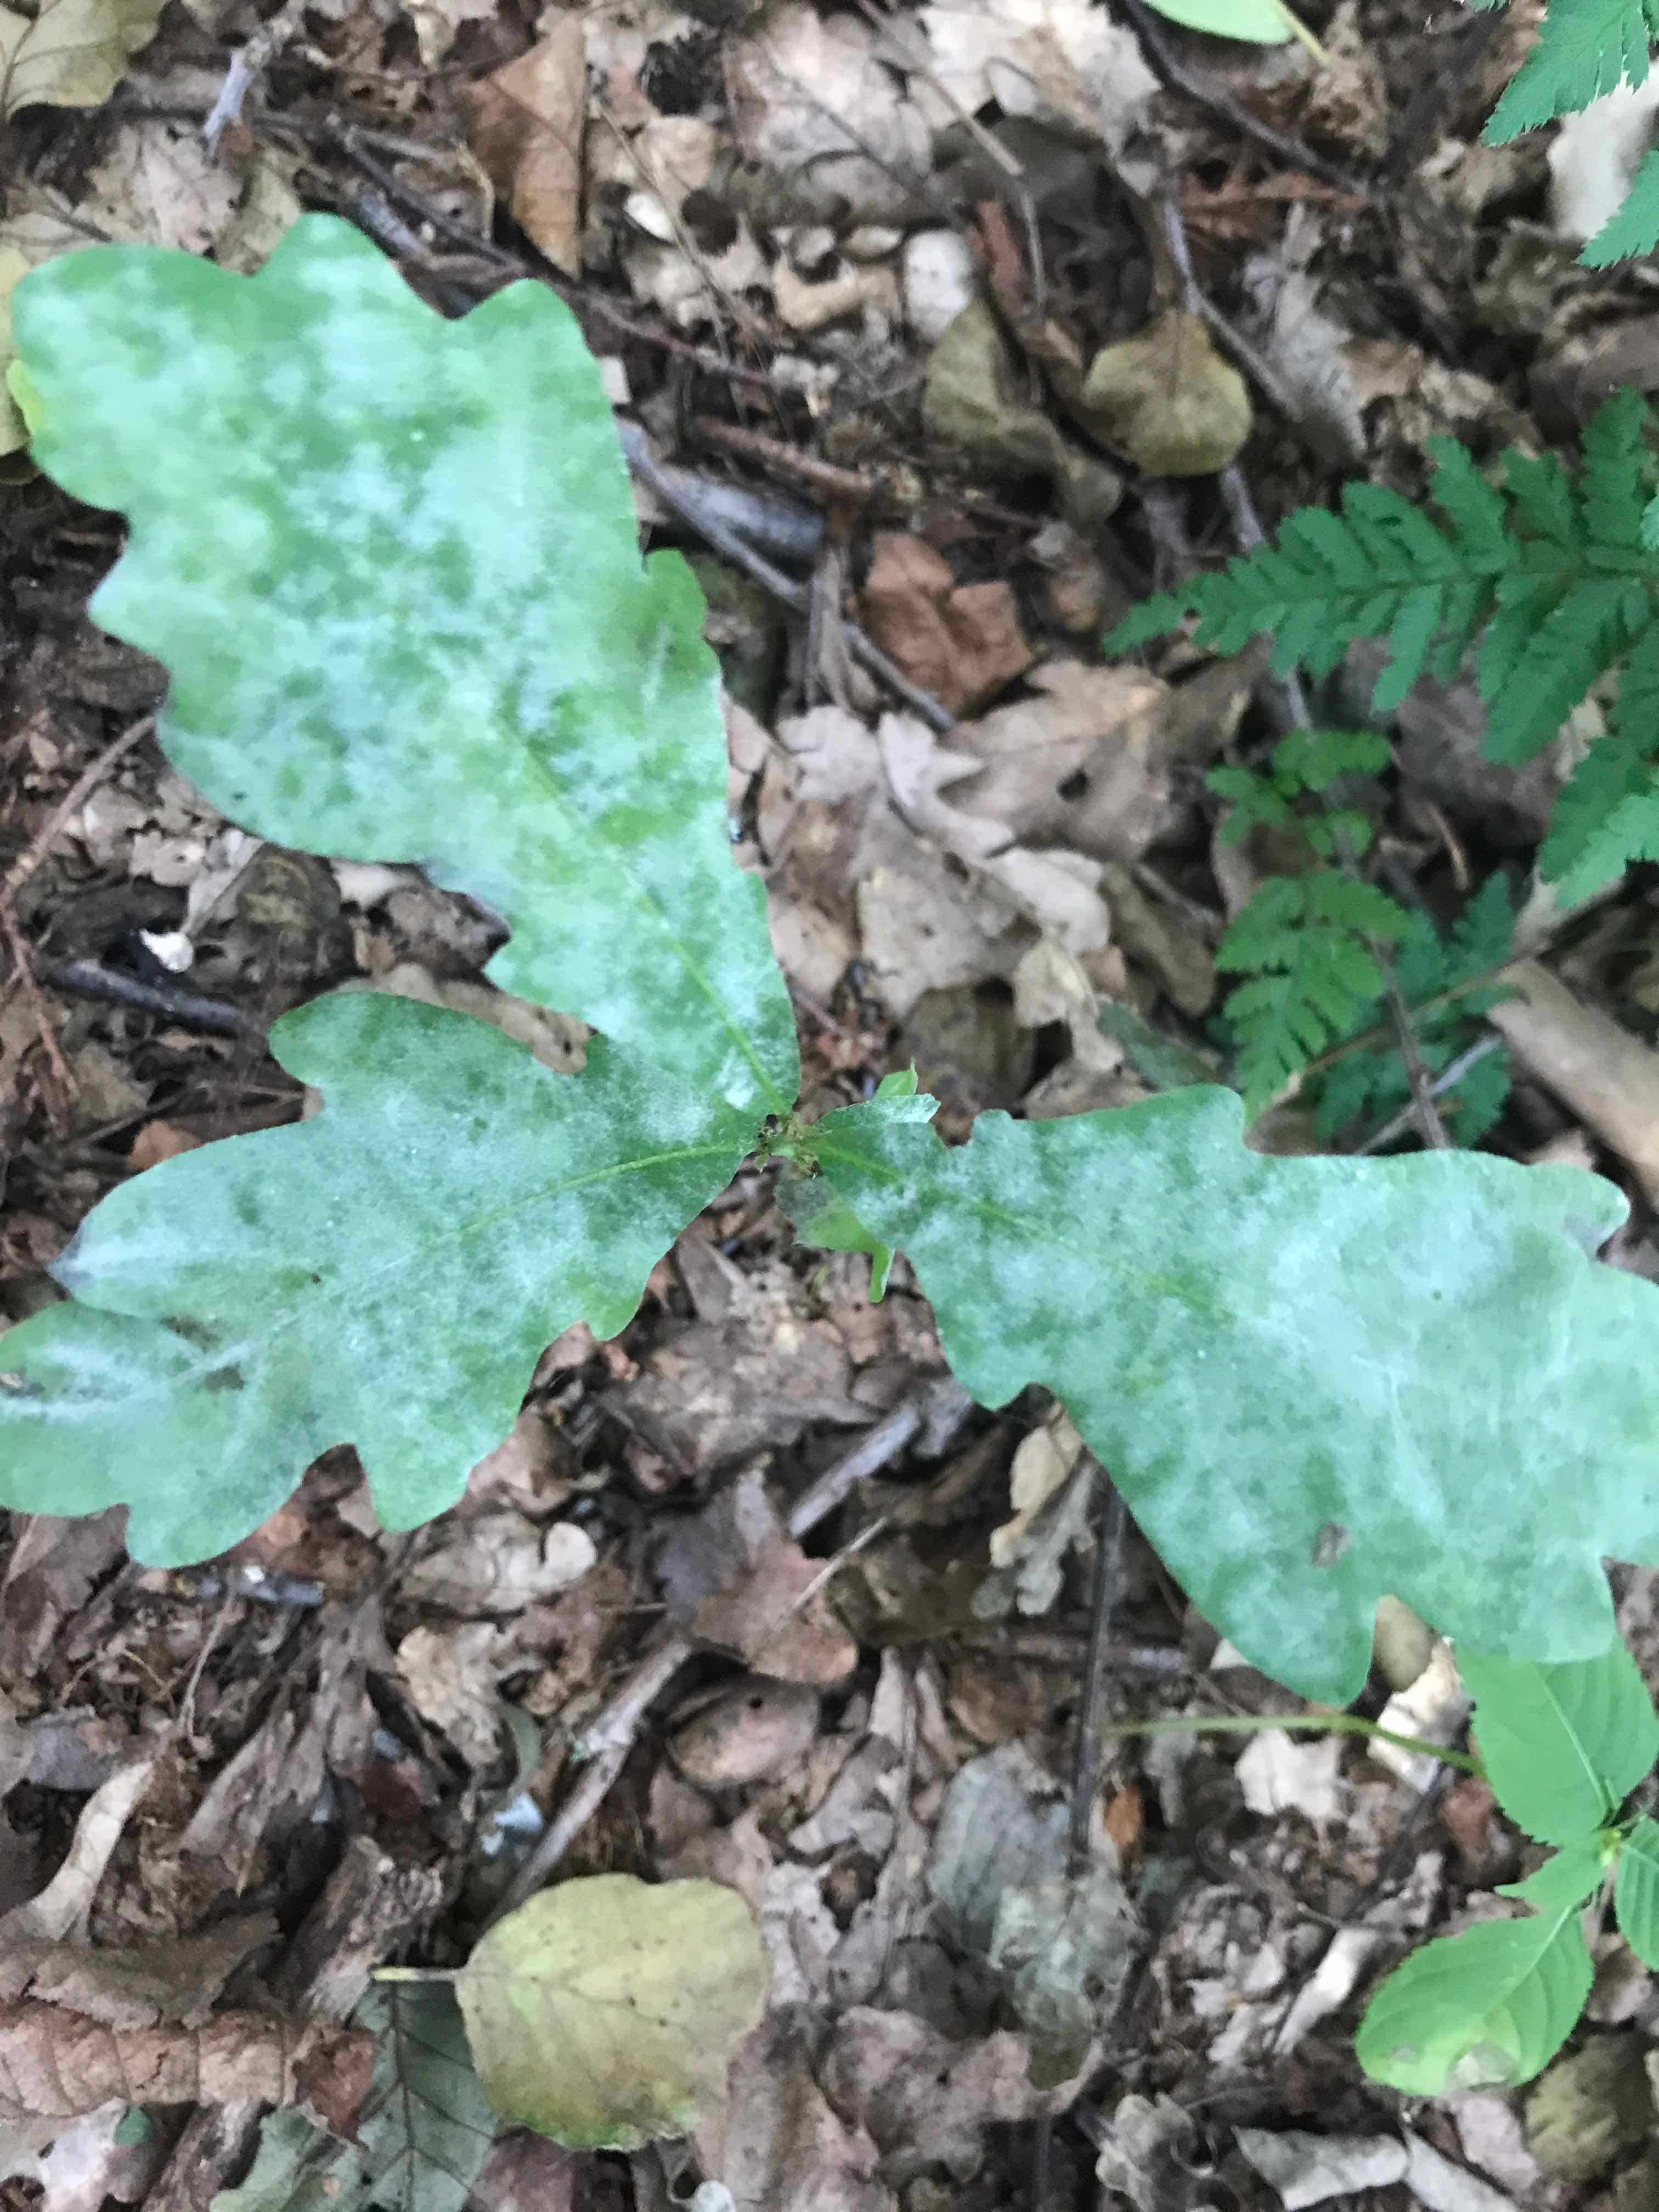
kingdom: Fungi
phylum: Ascomycota
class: Leotiomycetes
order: Helotiales
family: Erysiphaceae
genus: Erysiphe
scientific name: Erysiphe alphitoides
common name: ege-meldug
